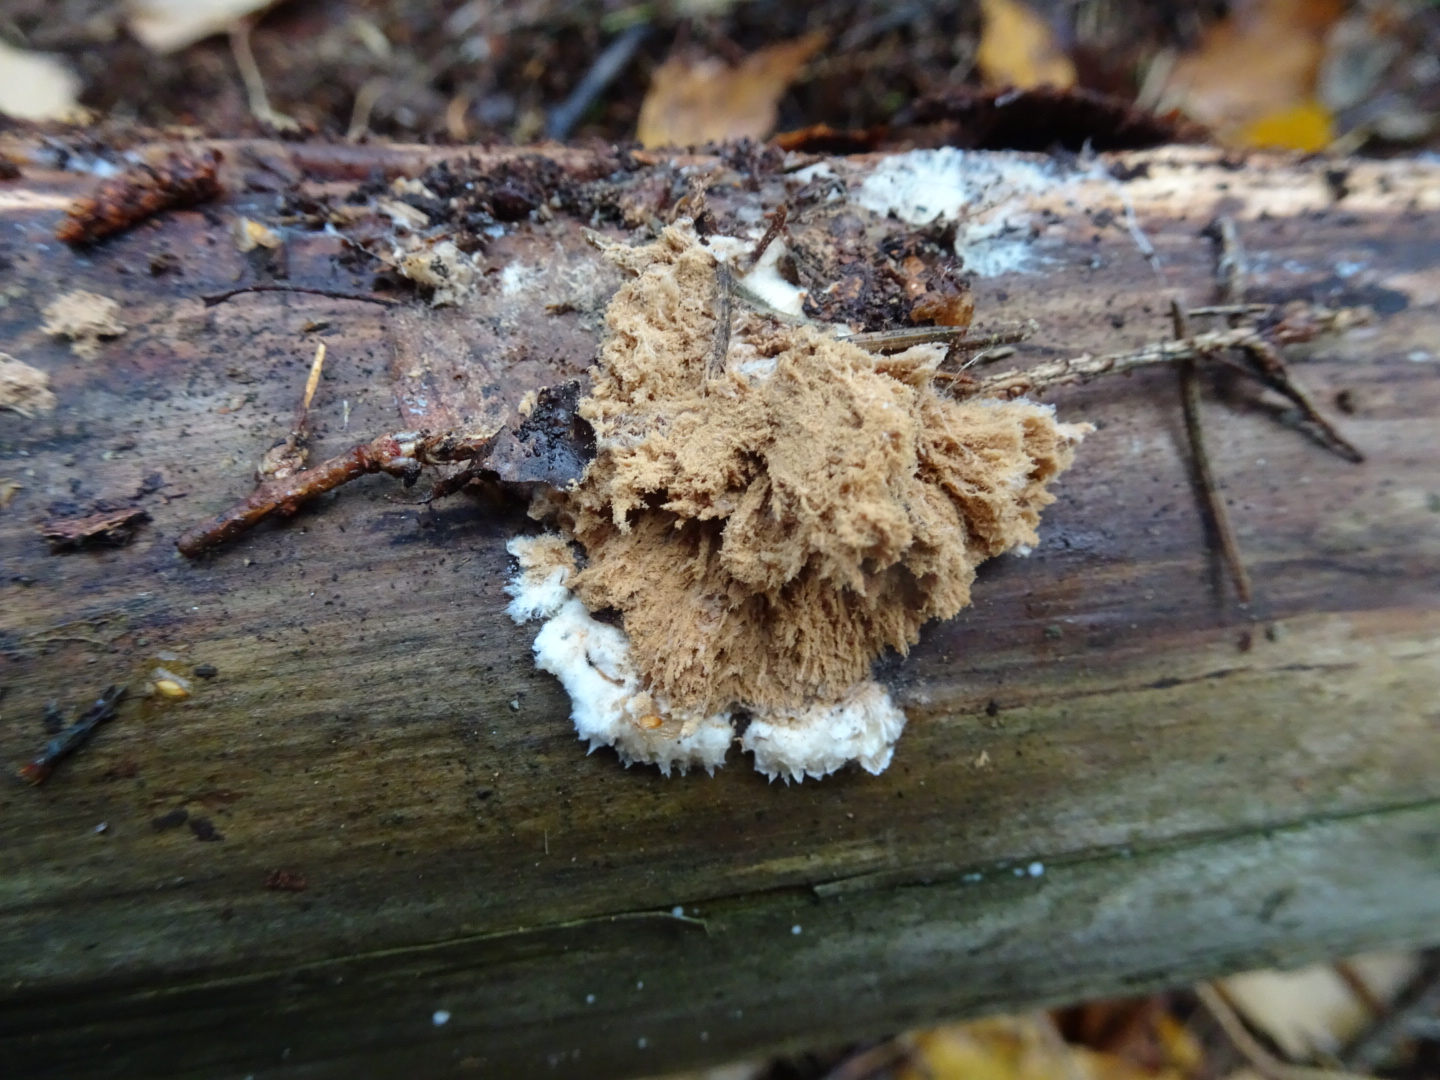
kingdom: Fungi
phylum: Basidiomycota
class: Agaricomycetes
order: Polyporales
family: Dacryobolaceae
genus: Postia
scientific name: Postia ptychogaster
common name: støvende kødporesvamp
